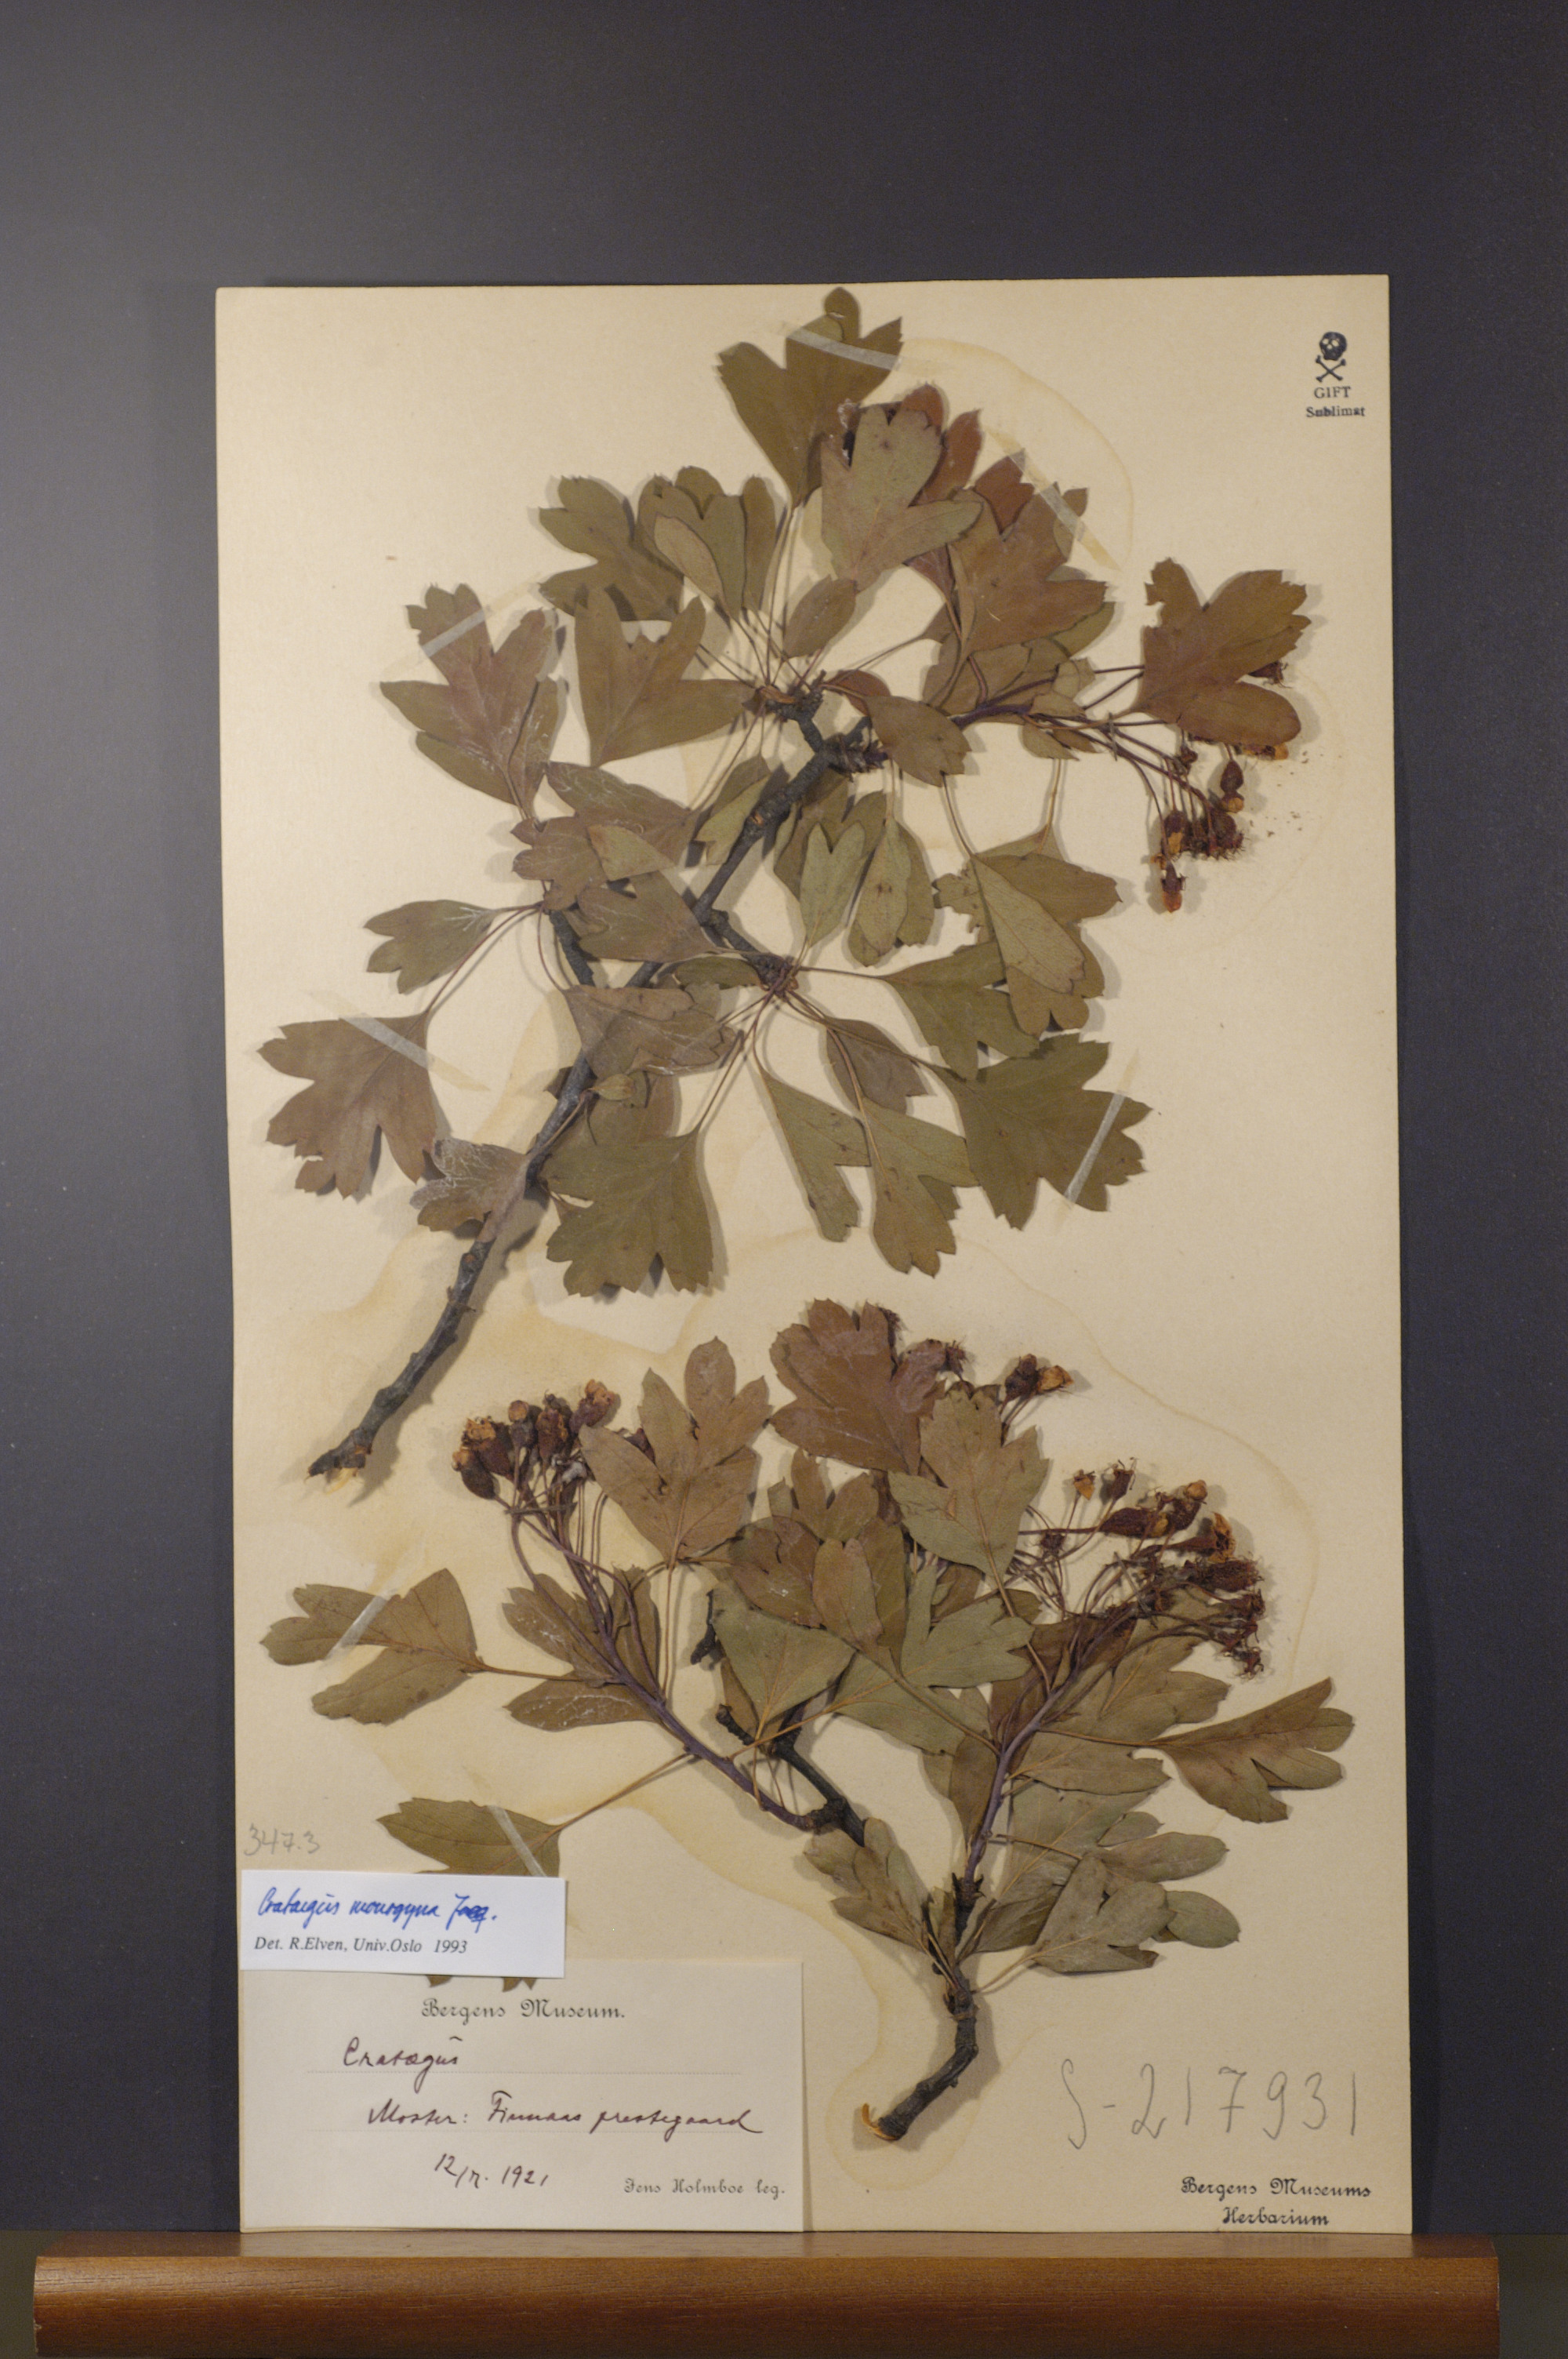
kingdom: Plantae
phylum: Tracheophyta
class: Magnoliopsida
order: Rosales
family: Rosaceae
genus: Crataegus
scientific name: Crataegus monogyna
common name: Hawthorn
